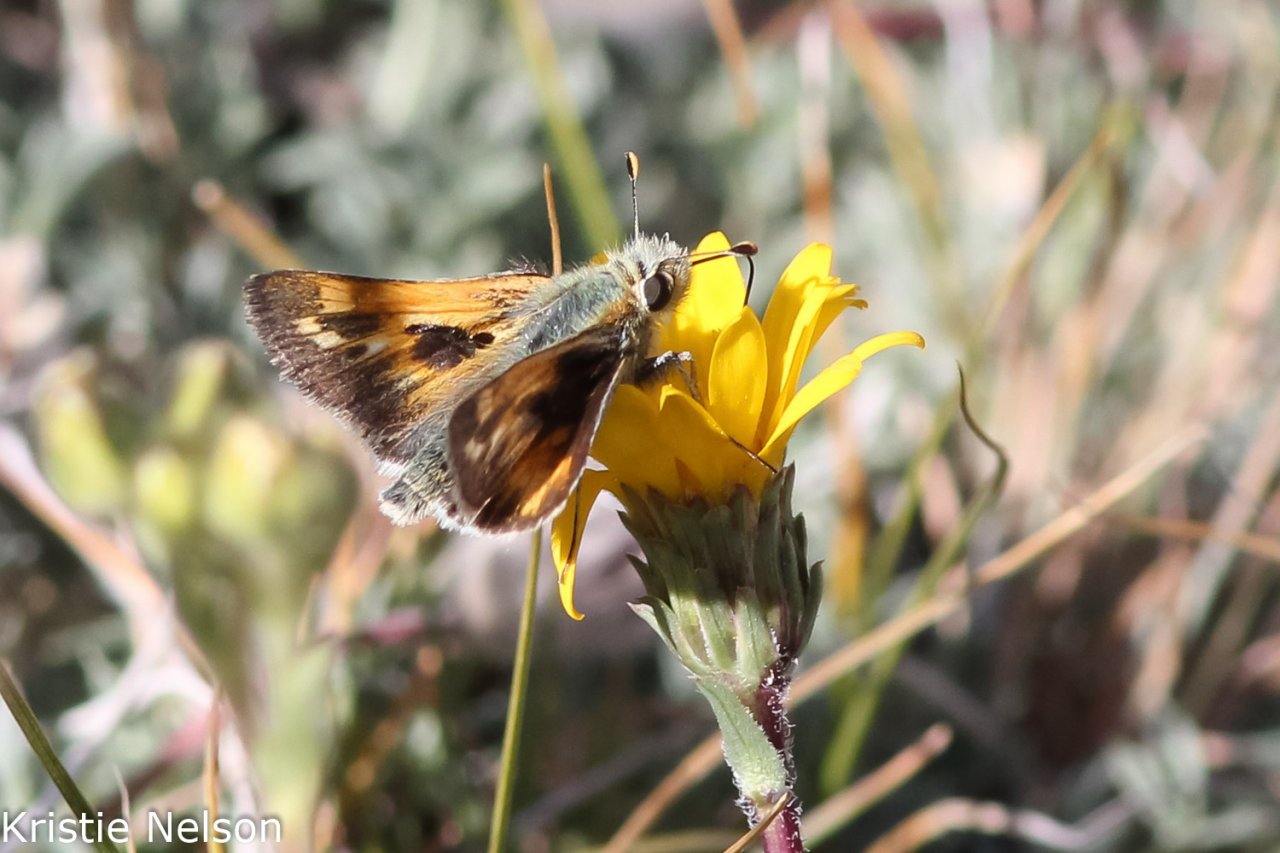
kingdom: Animalia
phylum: Arthropoda
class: Insecta
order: Lepidoptera
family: Hesperiidae
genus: Polites
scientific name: Polites sabuleti
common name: Sandhill Skipper
